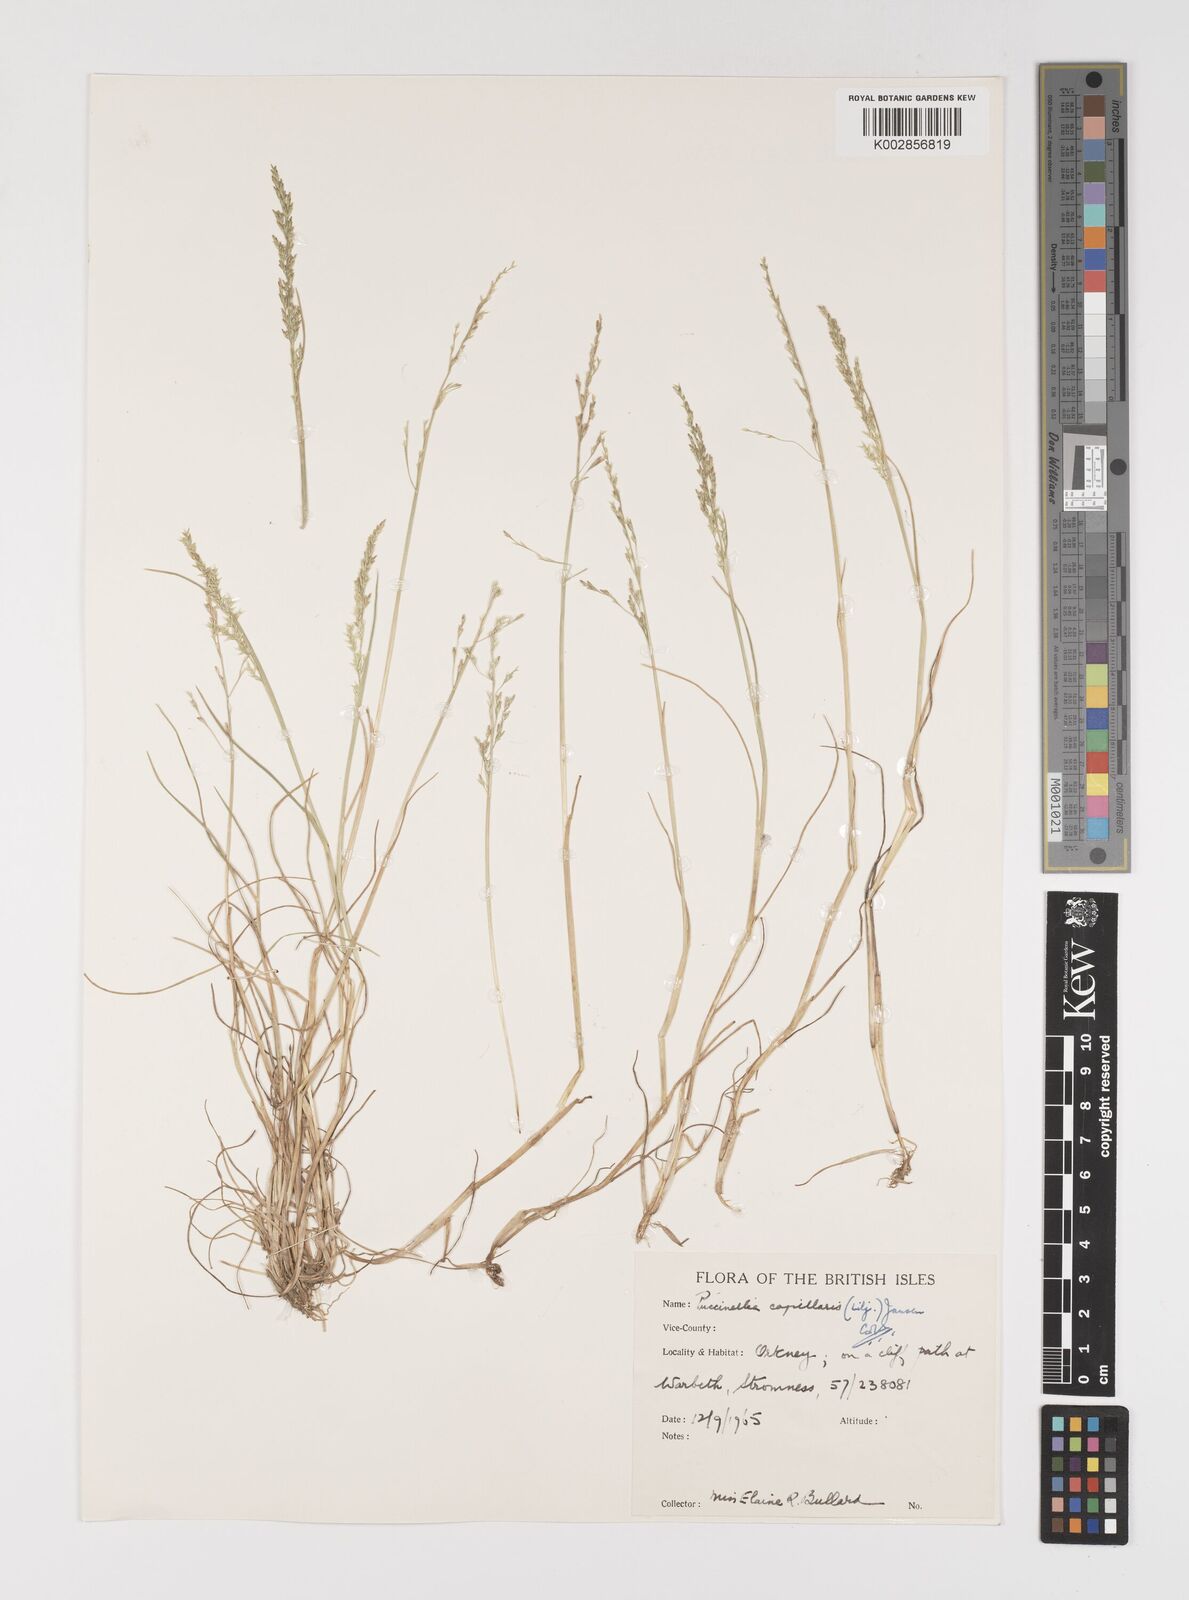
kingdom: Plantae
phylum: Tracheophyta
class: Liliopsida
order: Poales
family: Poaceae
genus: Puccinellia
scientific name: Puccinellia distans
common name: Weeping alkaligrass
